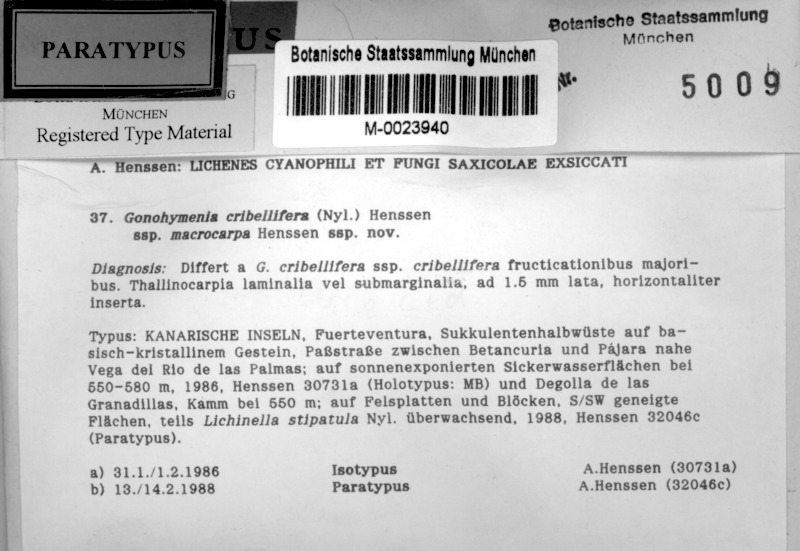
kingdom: Fungi
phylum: Ascomycota
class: Lichinomycetes
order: Lichinales
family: Lichinaceae
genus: Gonohymenia
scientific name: Gonohymenia cribellifera
